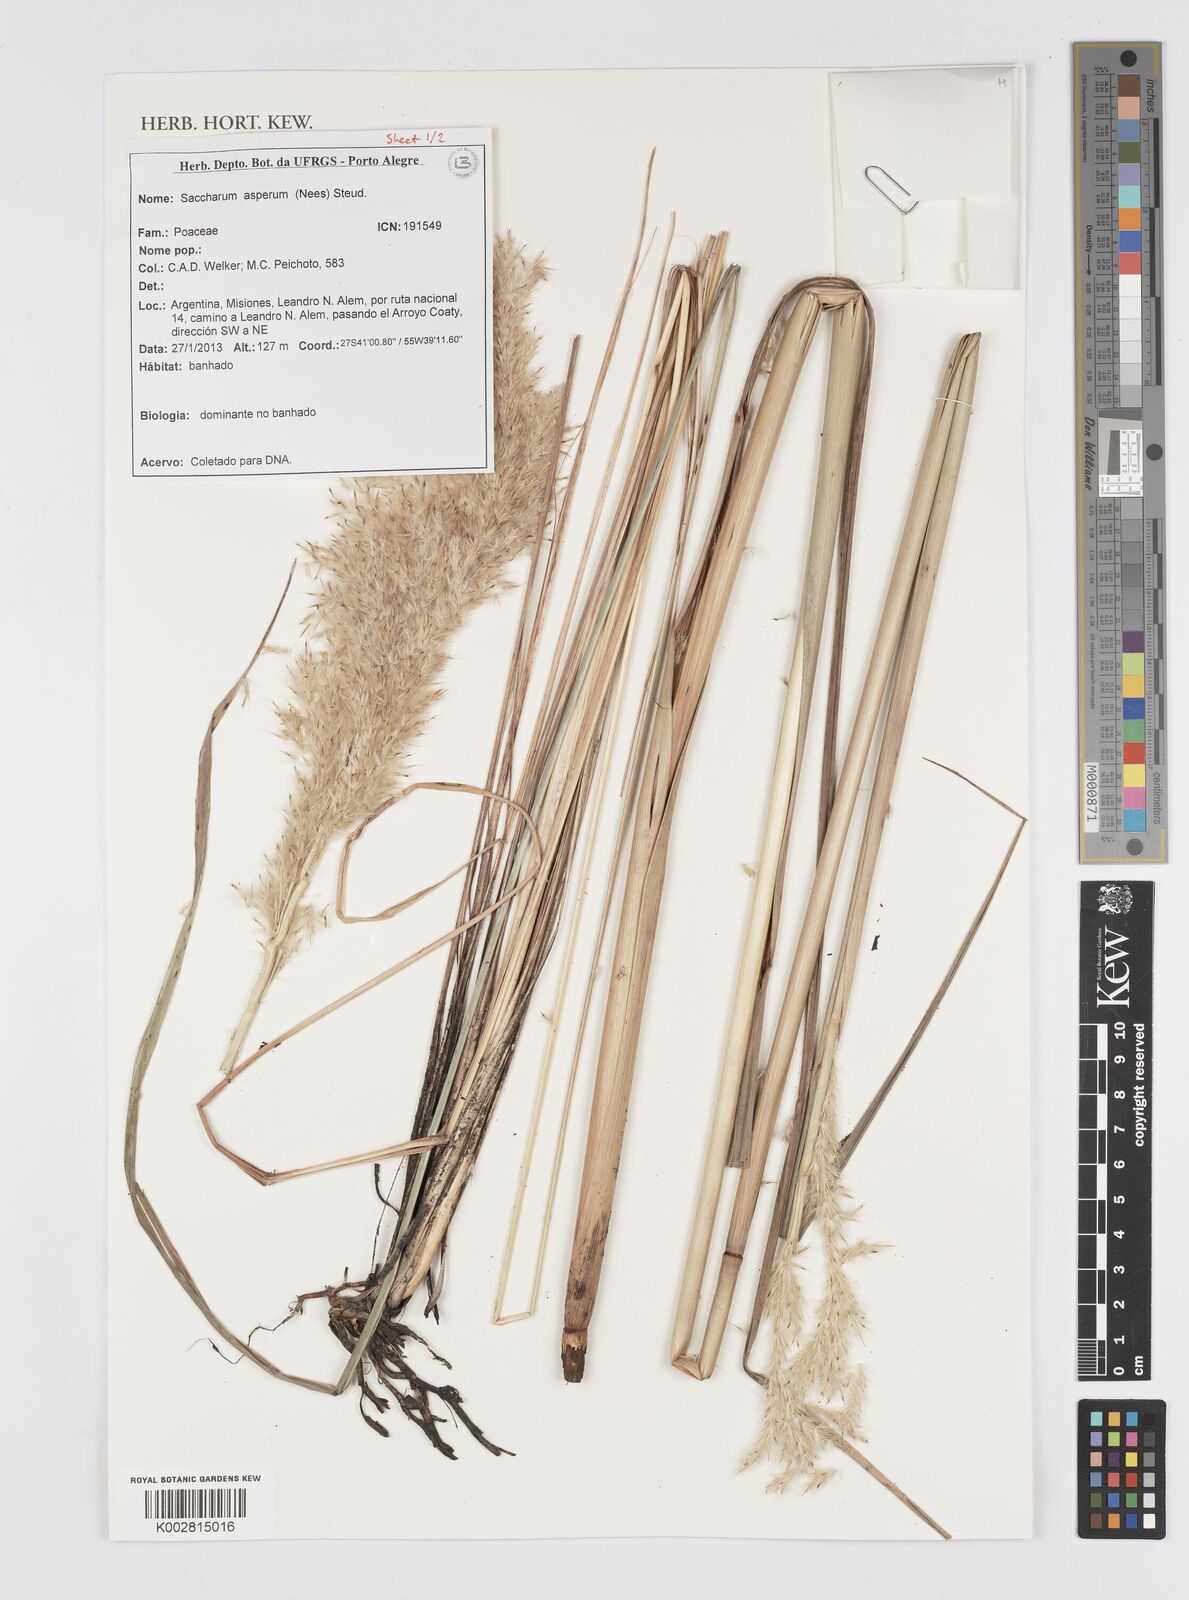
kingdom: Plantae
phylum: Tracheophyta
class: Liliopsida
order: Poales
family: Poaceae
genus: Erianthus
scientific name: Erianthus asper
